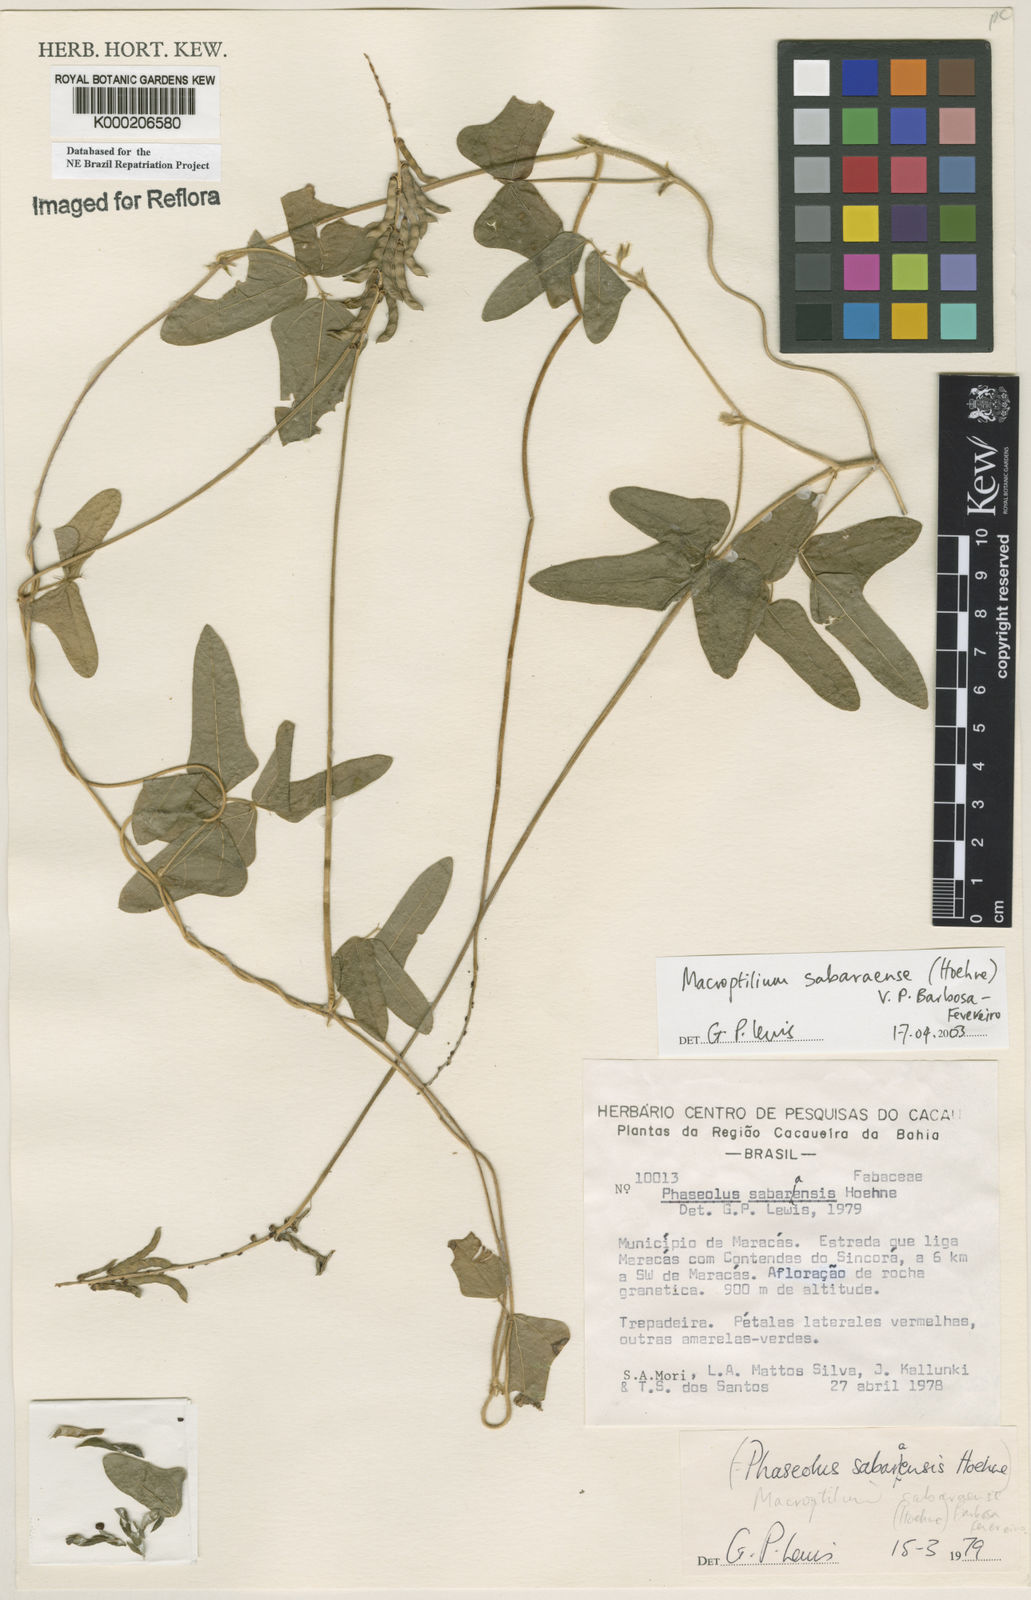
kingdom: Plantae
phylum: Tracheophyta
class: Magnoliopsida
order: Fabales
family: Fabaceae
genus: Macroptilium
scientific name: Macroptilium sabaraense
